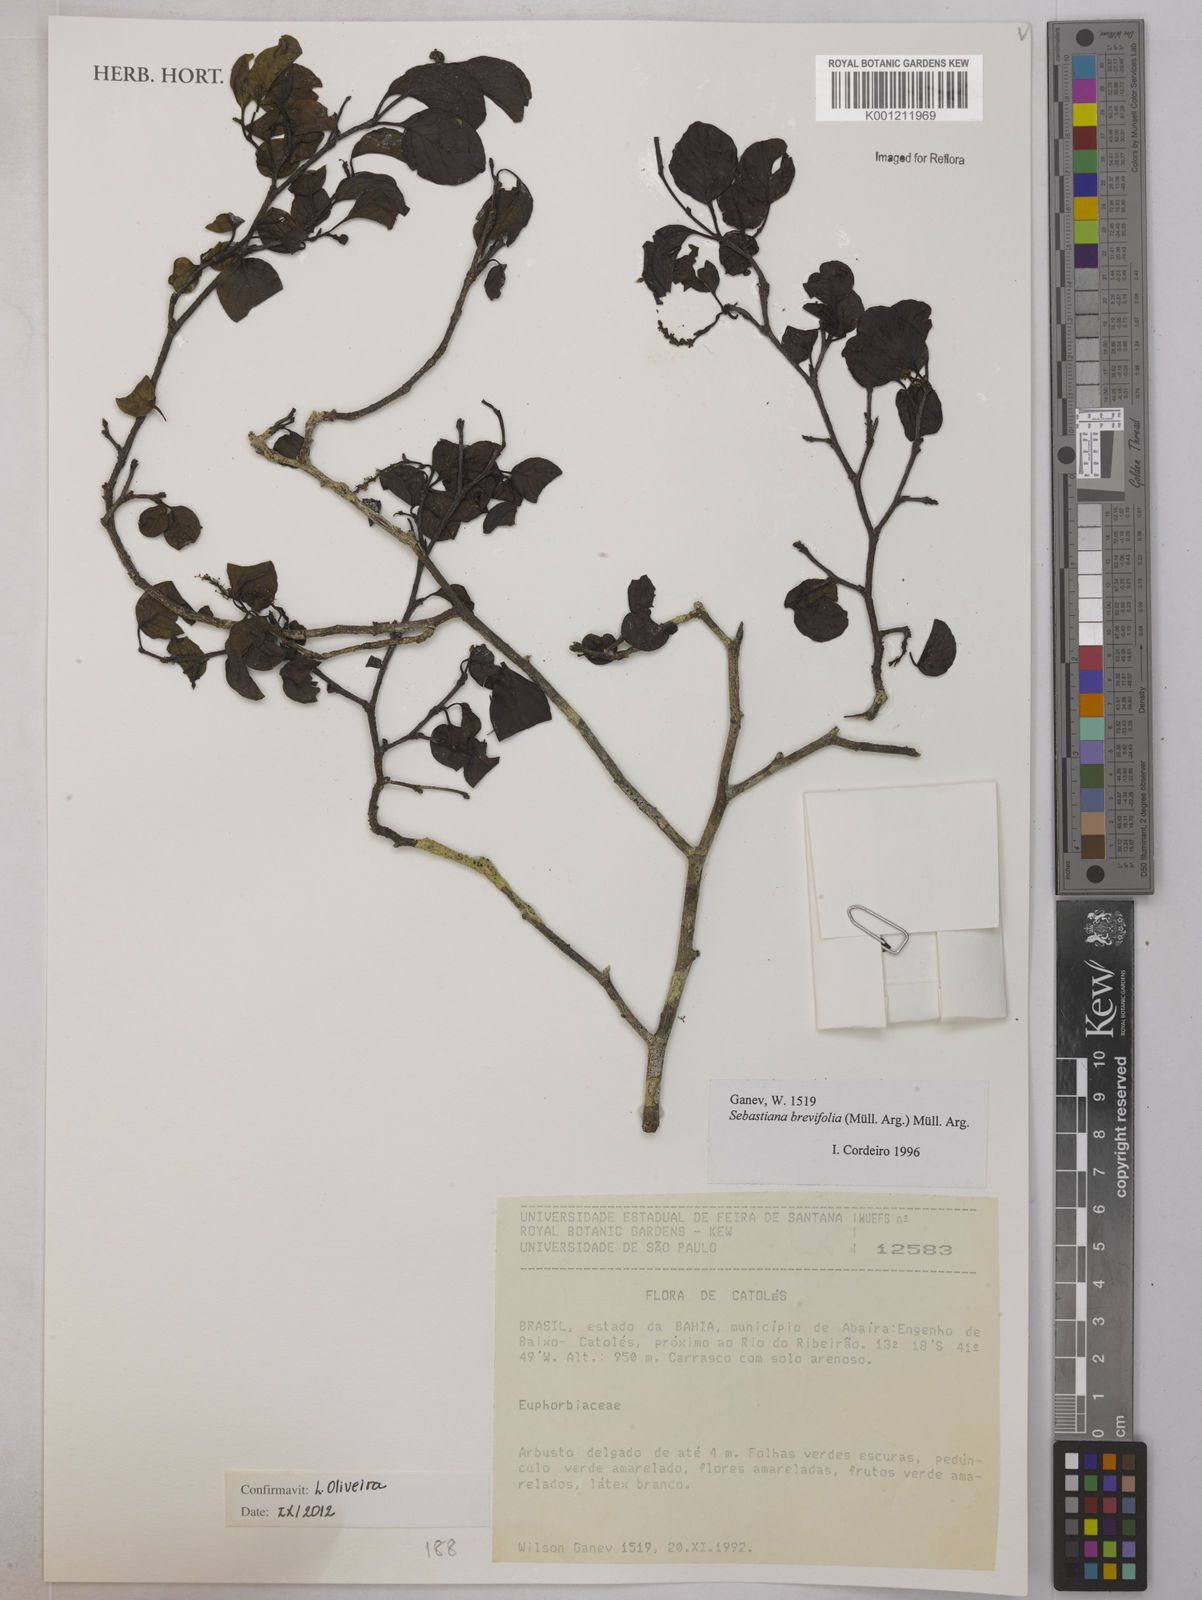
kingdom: Plantae
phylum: Tracheophyta
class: Magnoliopsida
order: Malpighiales
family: Euphorbiaceae
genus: Sebastiania
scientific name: Sebastiania
